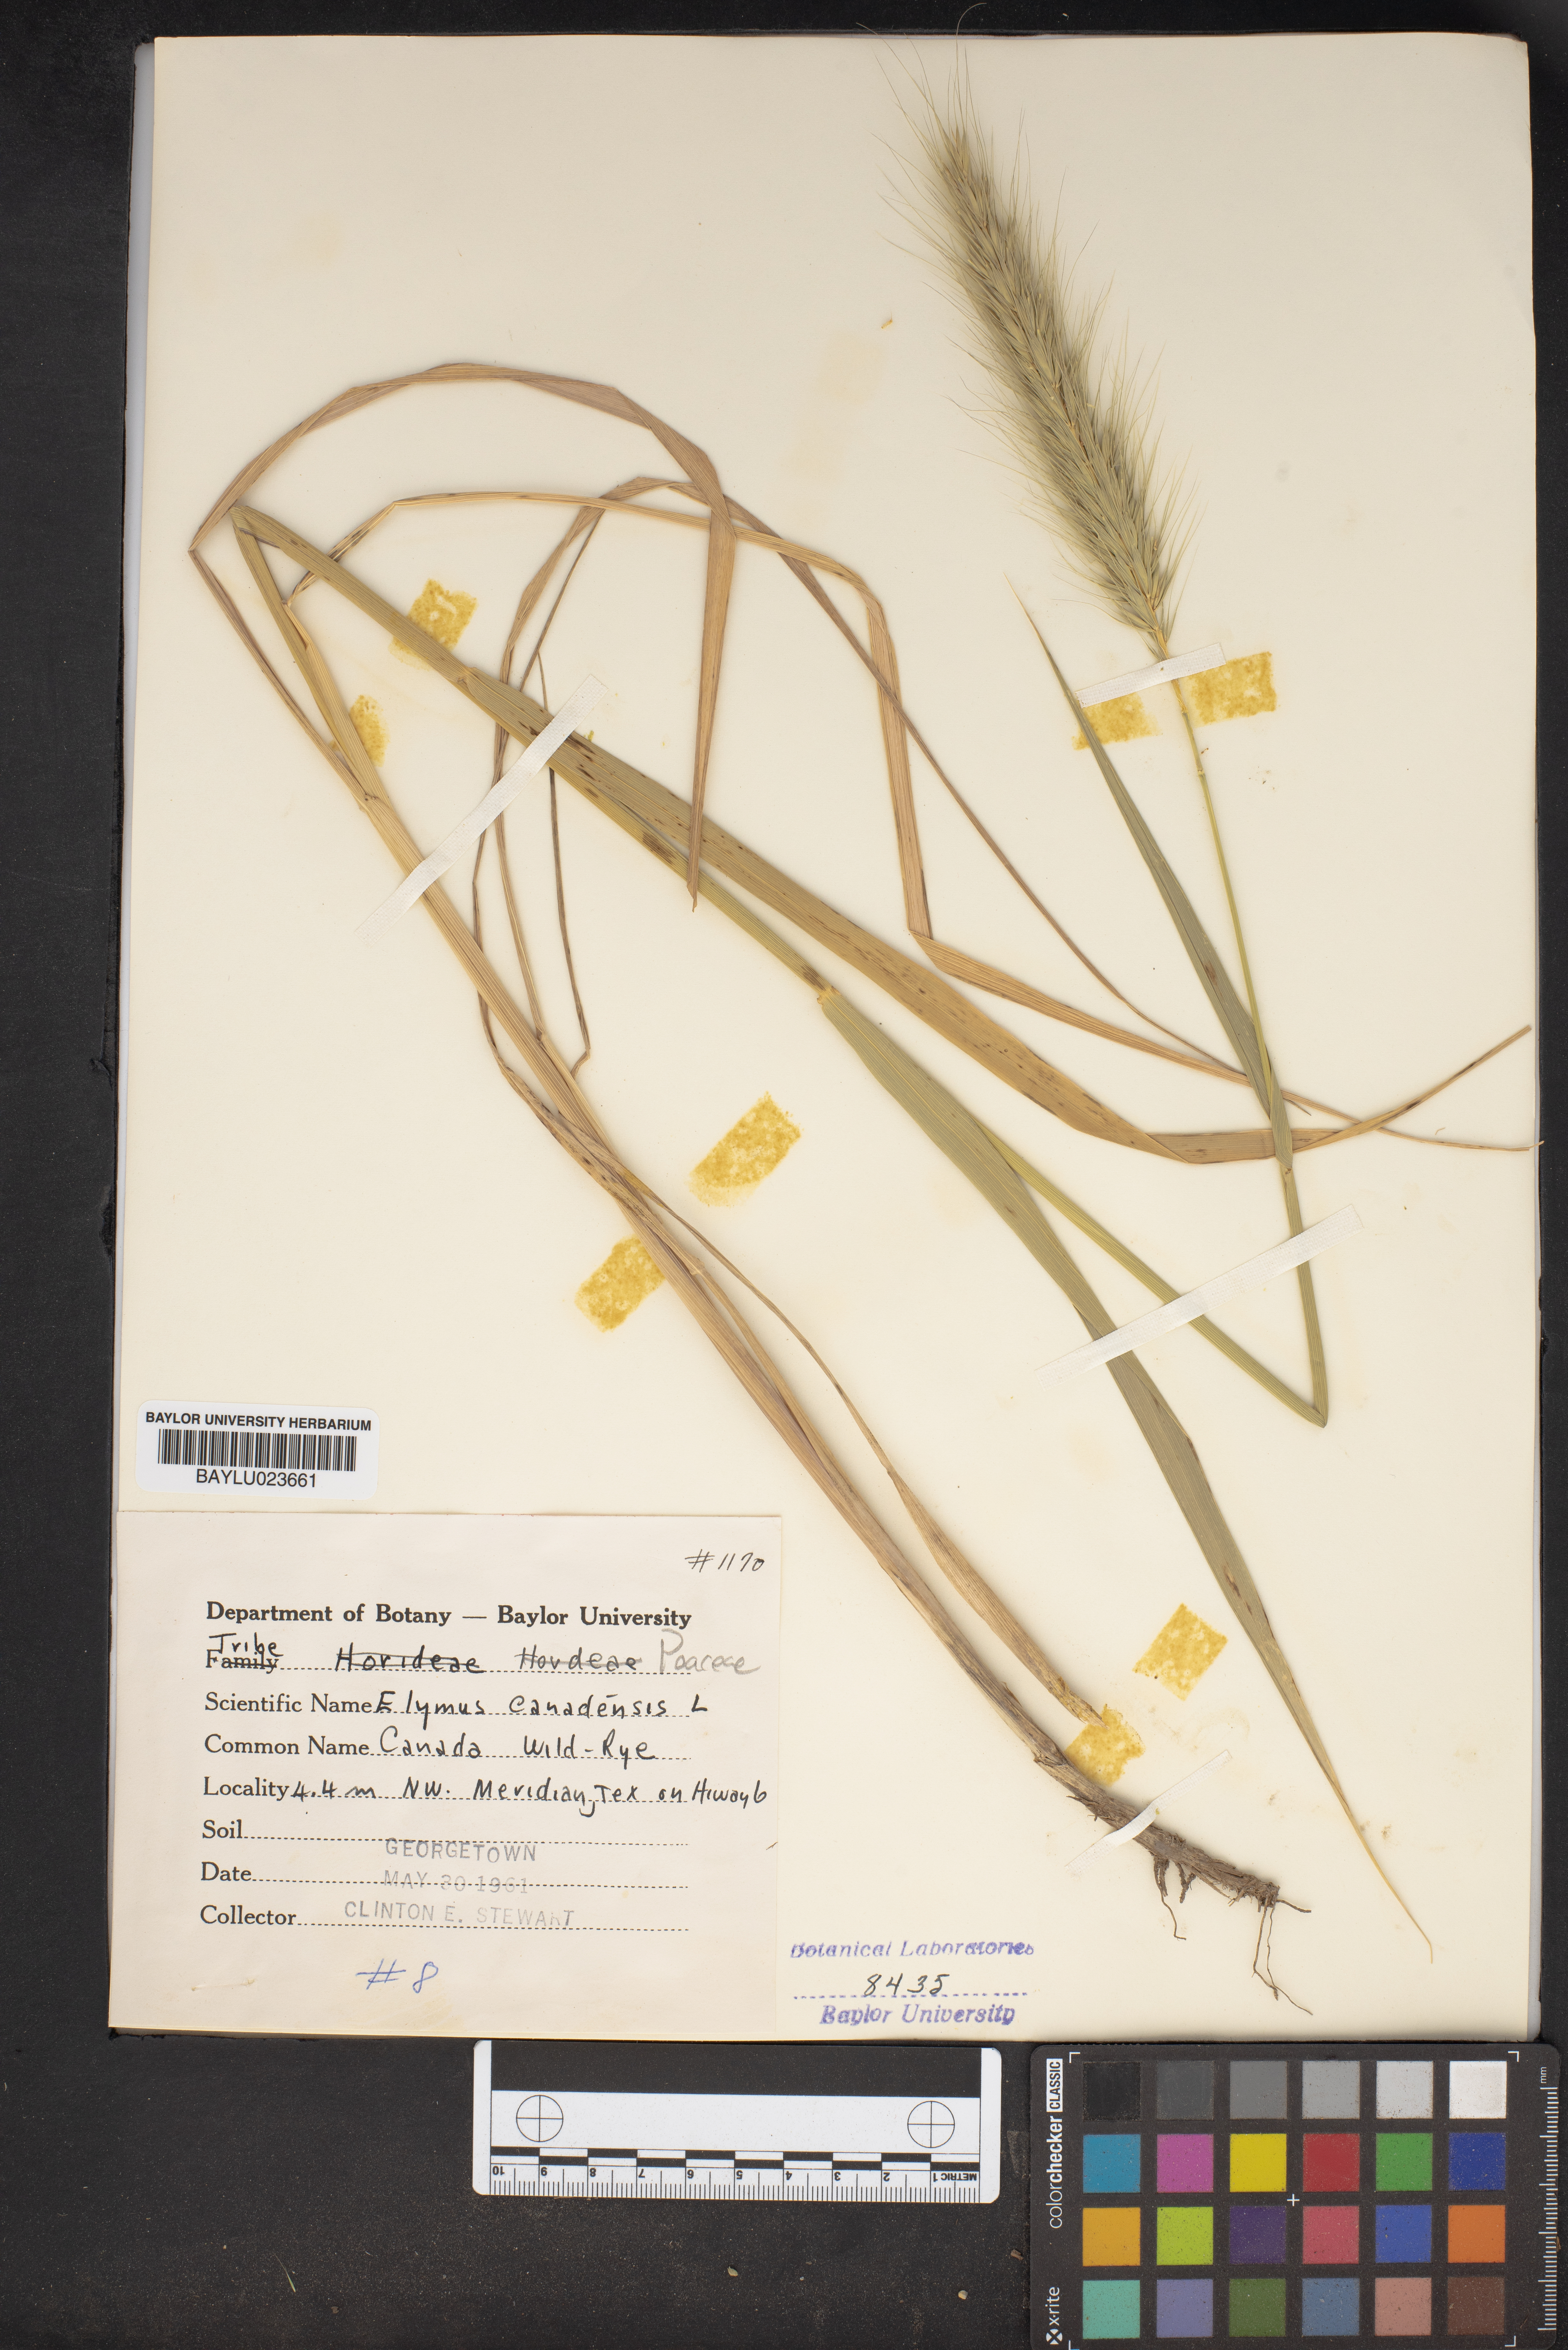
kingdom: Plantae
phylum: Tracheophyta
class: Liliopsida
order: Poales
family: Poaceae
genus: Elymus
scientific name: Elymus canadensis
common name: Canada wild rye
